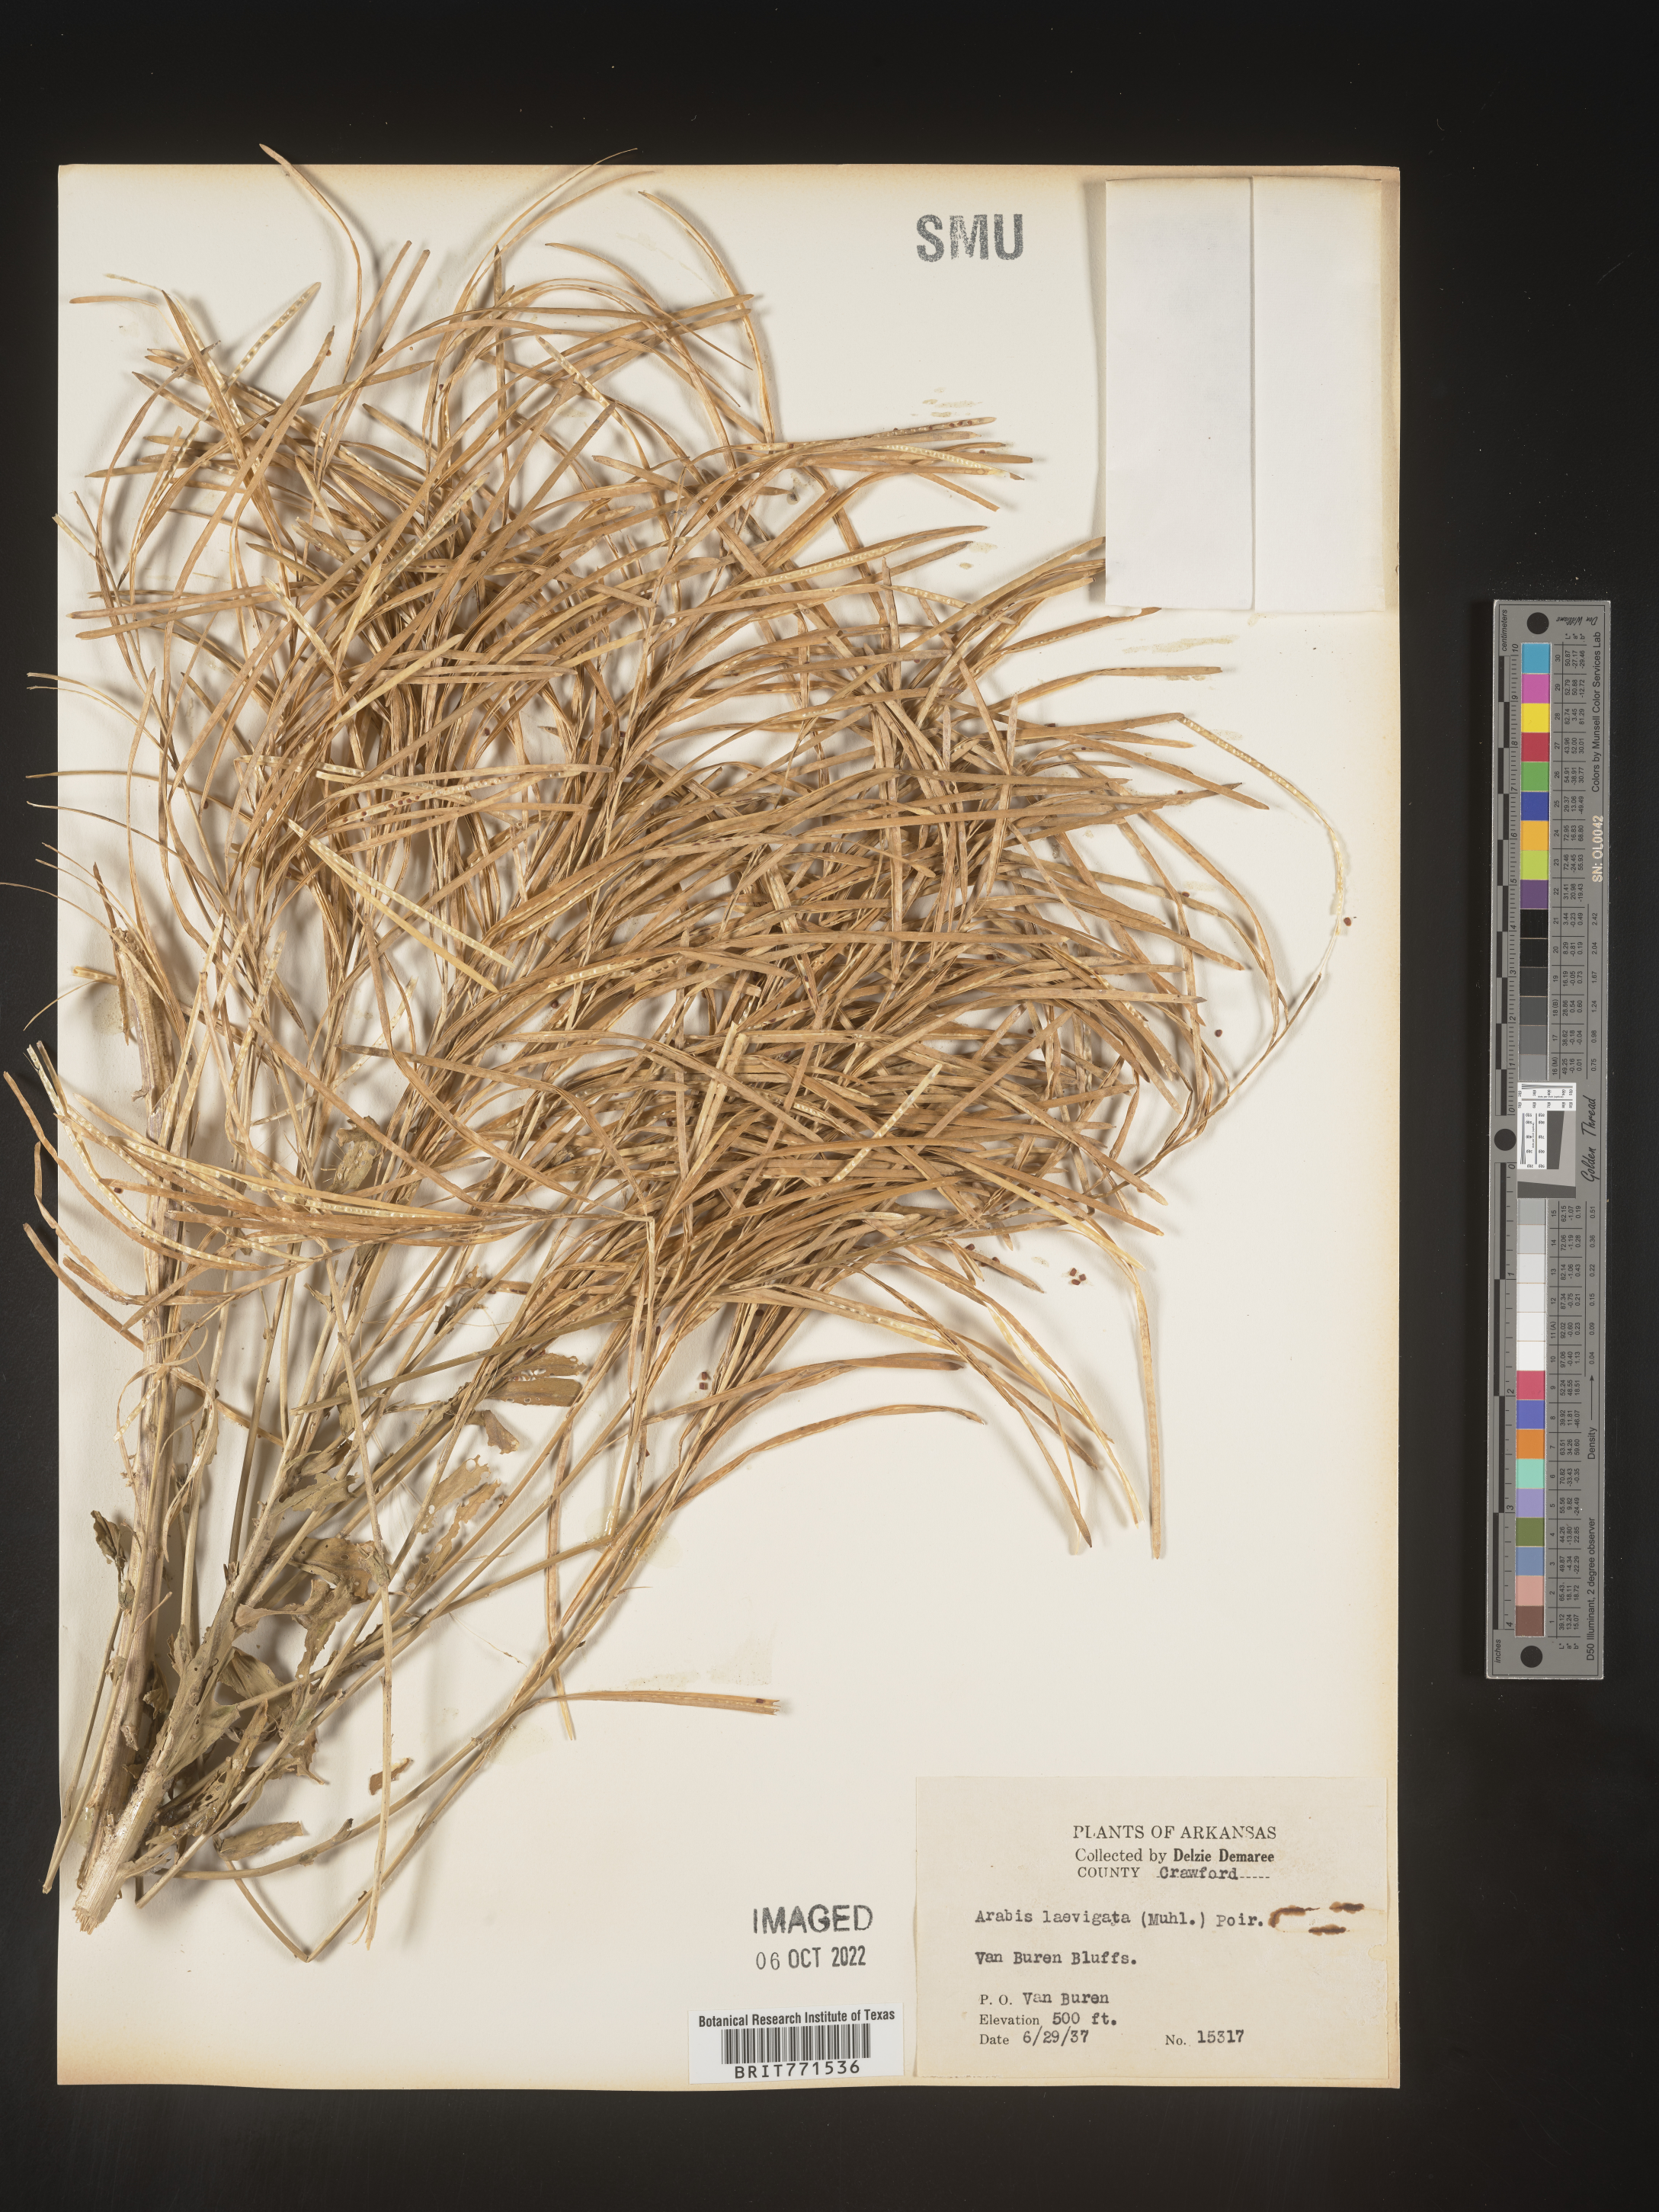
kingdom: Plantae
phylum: Tracheophyta
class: Magnoliopsida
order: Brassicales
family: Brassicaceae
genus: Arabis
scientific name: Arabis laevigata
